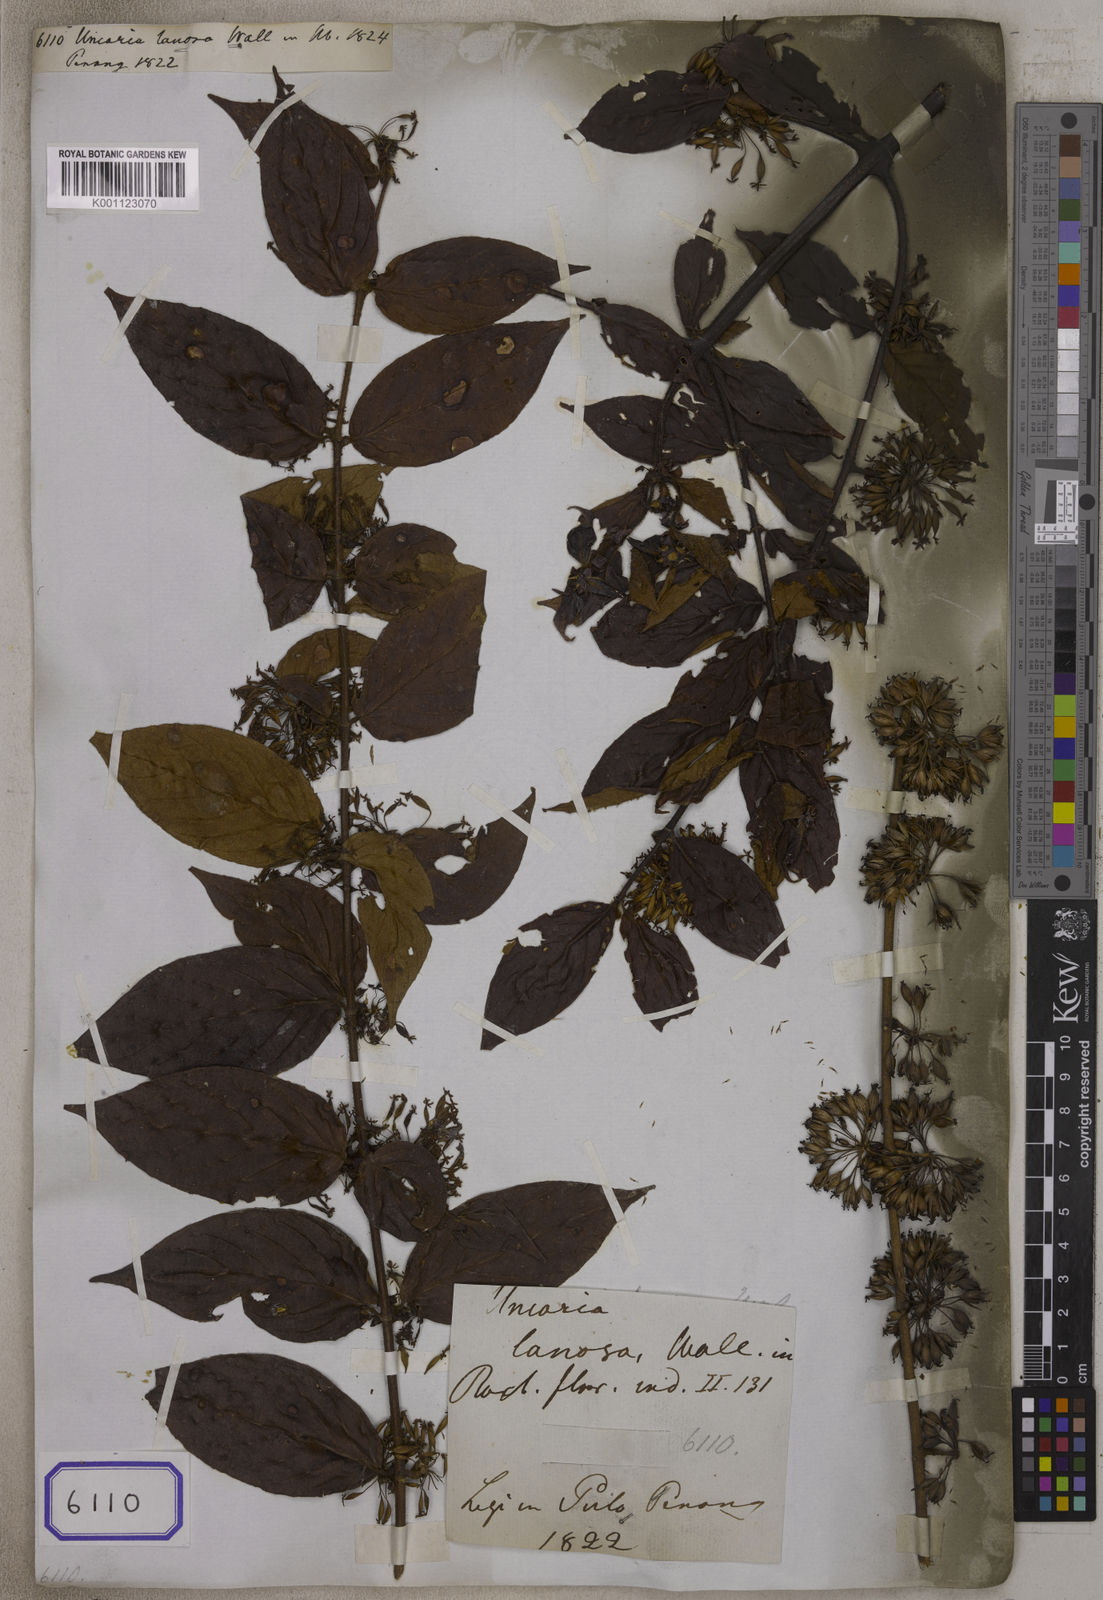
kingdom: Plantae
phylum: Tracheophyta
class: Magnoliopsida
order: Gentianales
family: Rubiaceae
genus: Uncaria
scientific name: Uncaria lanosa
